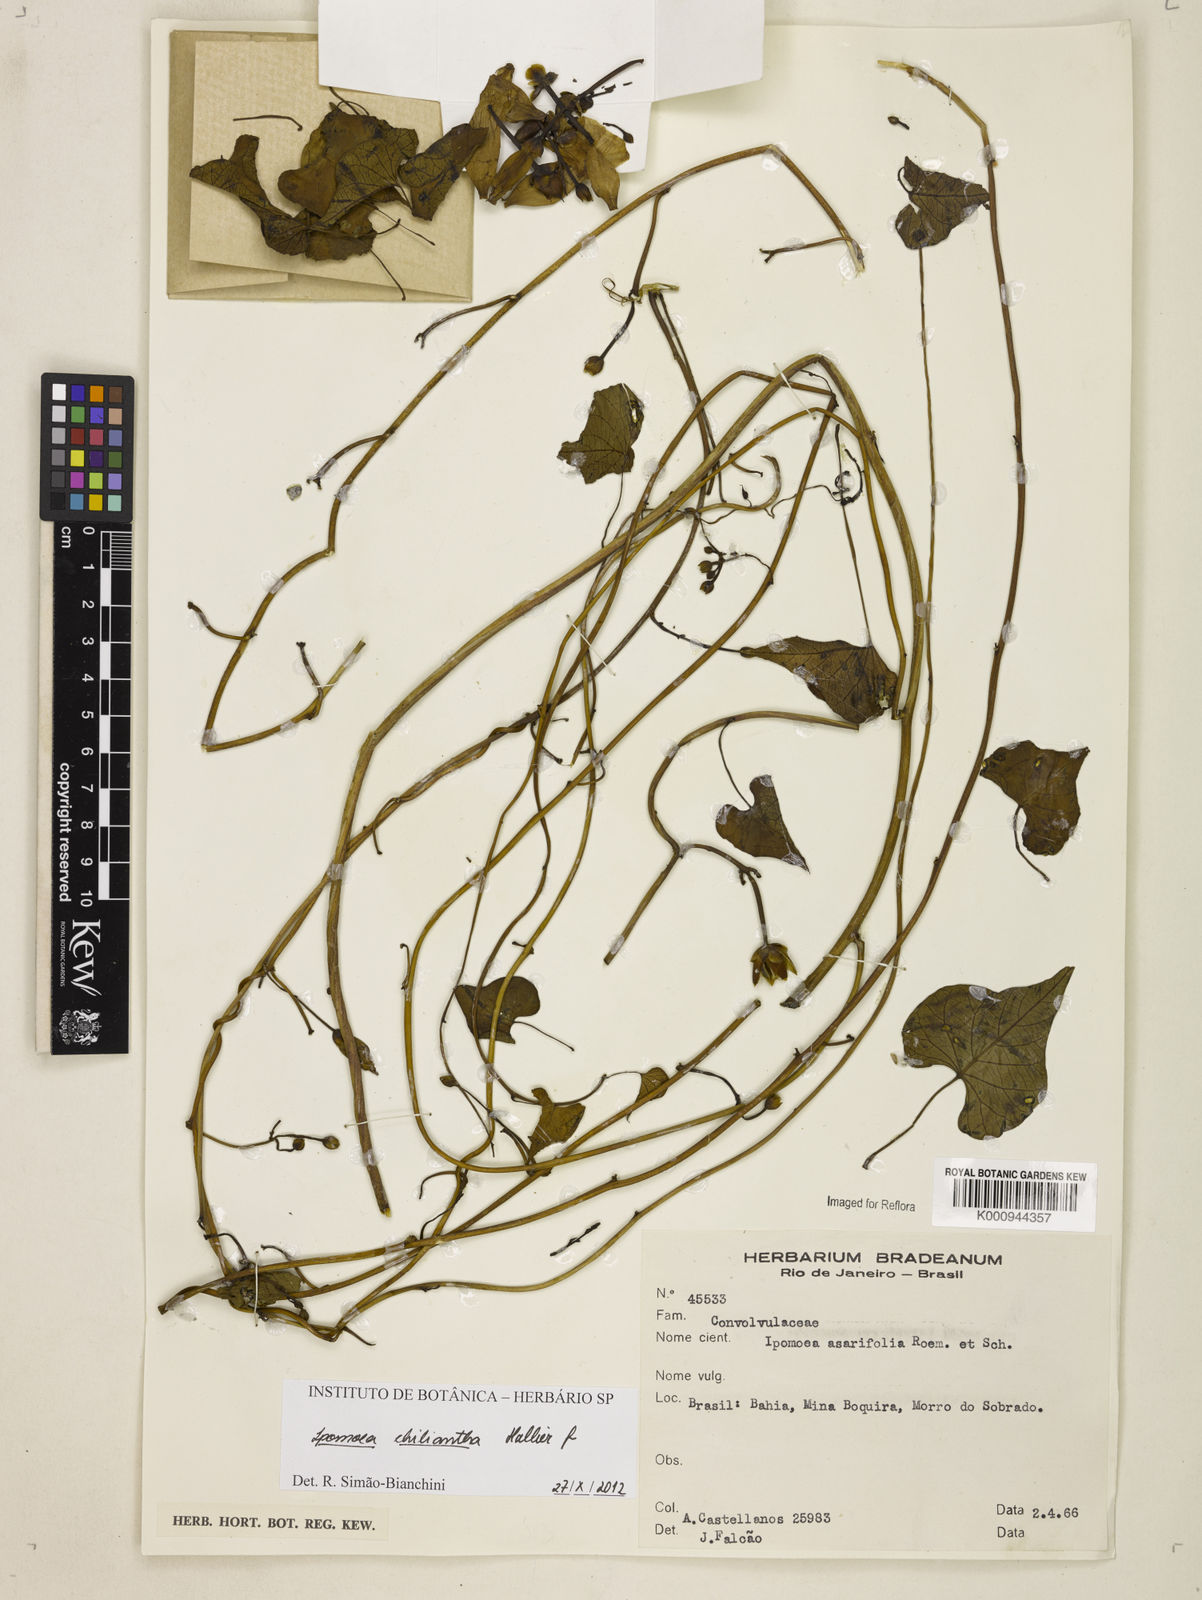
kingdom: Plantae
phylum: Tracheophyta
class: Magnoliopsida
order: Solanales
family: Convolvulaceae
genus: Ipomoea
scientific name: Ipomoea amnicola
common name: Redcenter morning-glory
